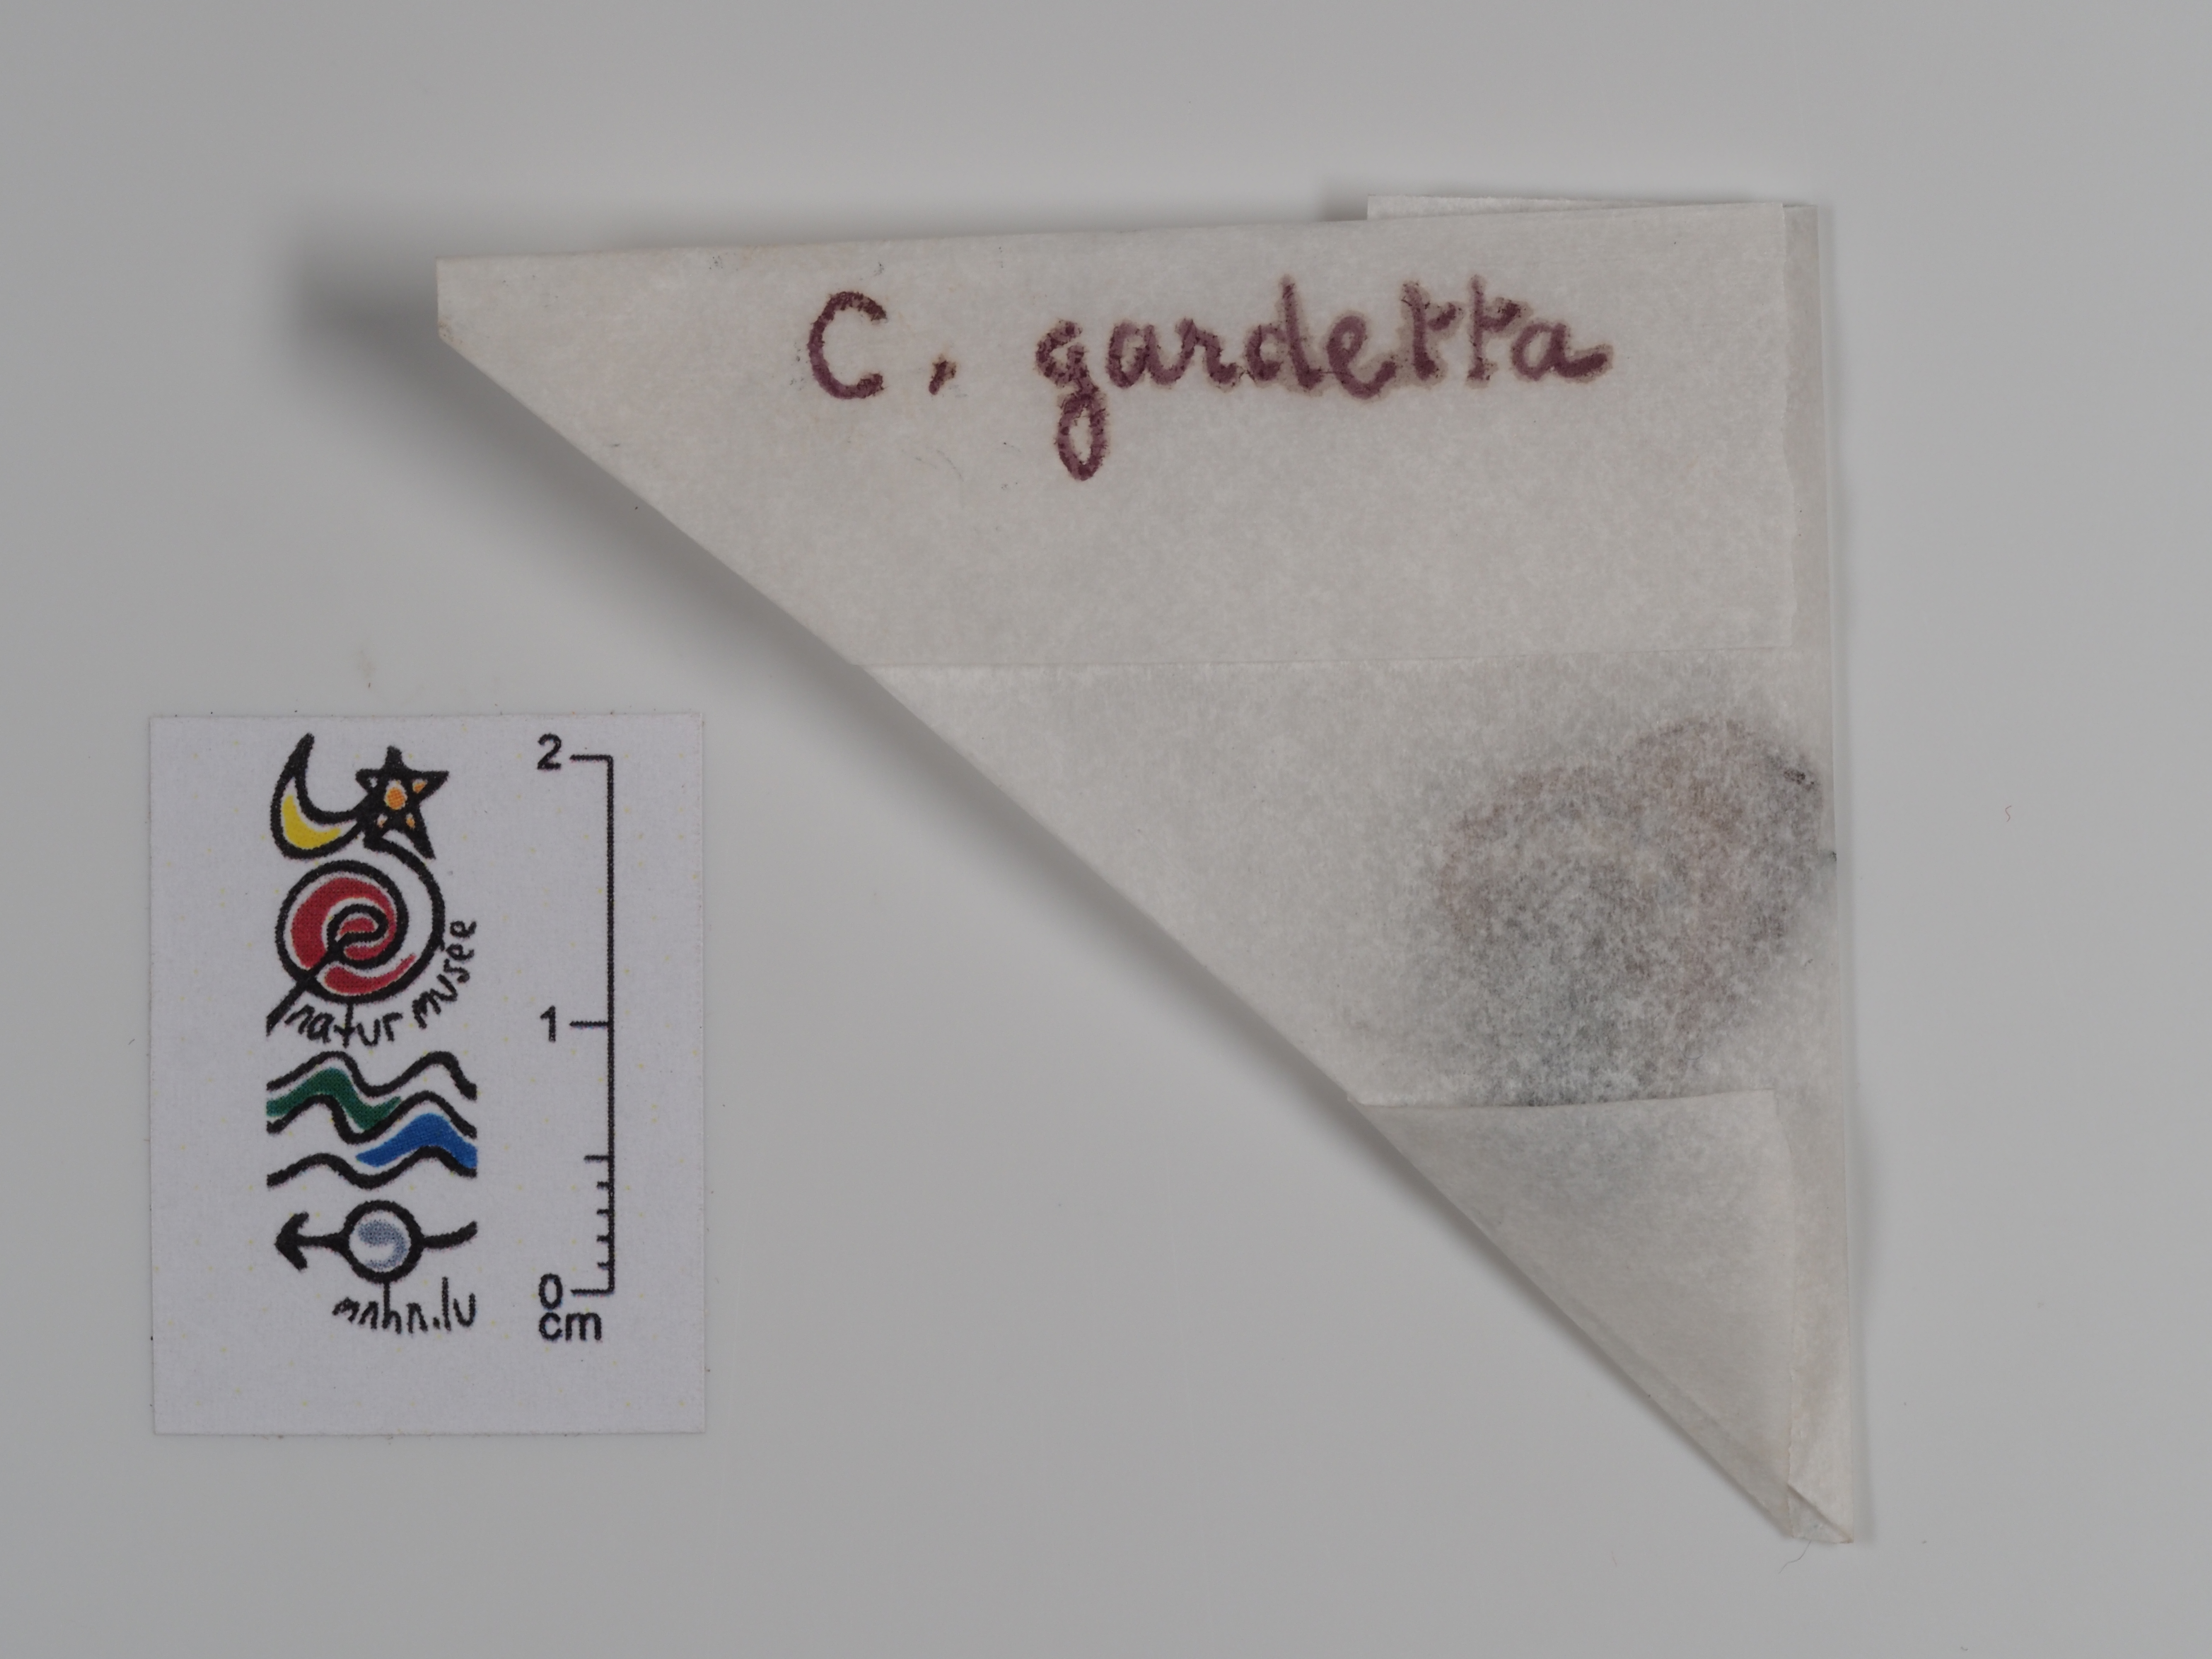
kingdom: Animalia
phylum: Arthropoda
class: Insecta
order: Lepidoptera
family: Nymphalidae
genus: Coenonympha
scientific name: Coenonympha arcania
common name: Pearly heath
